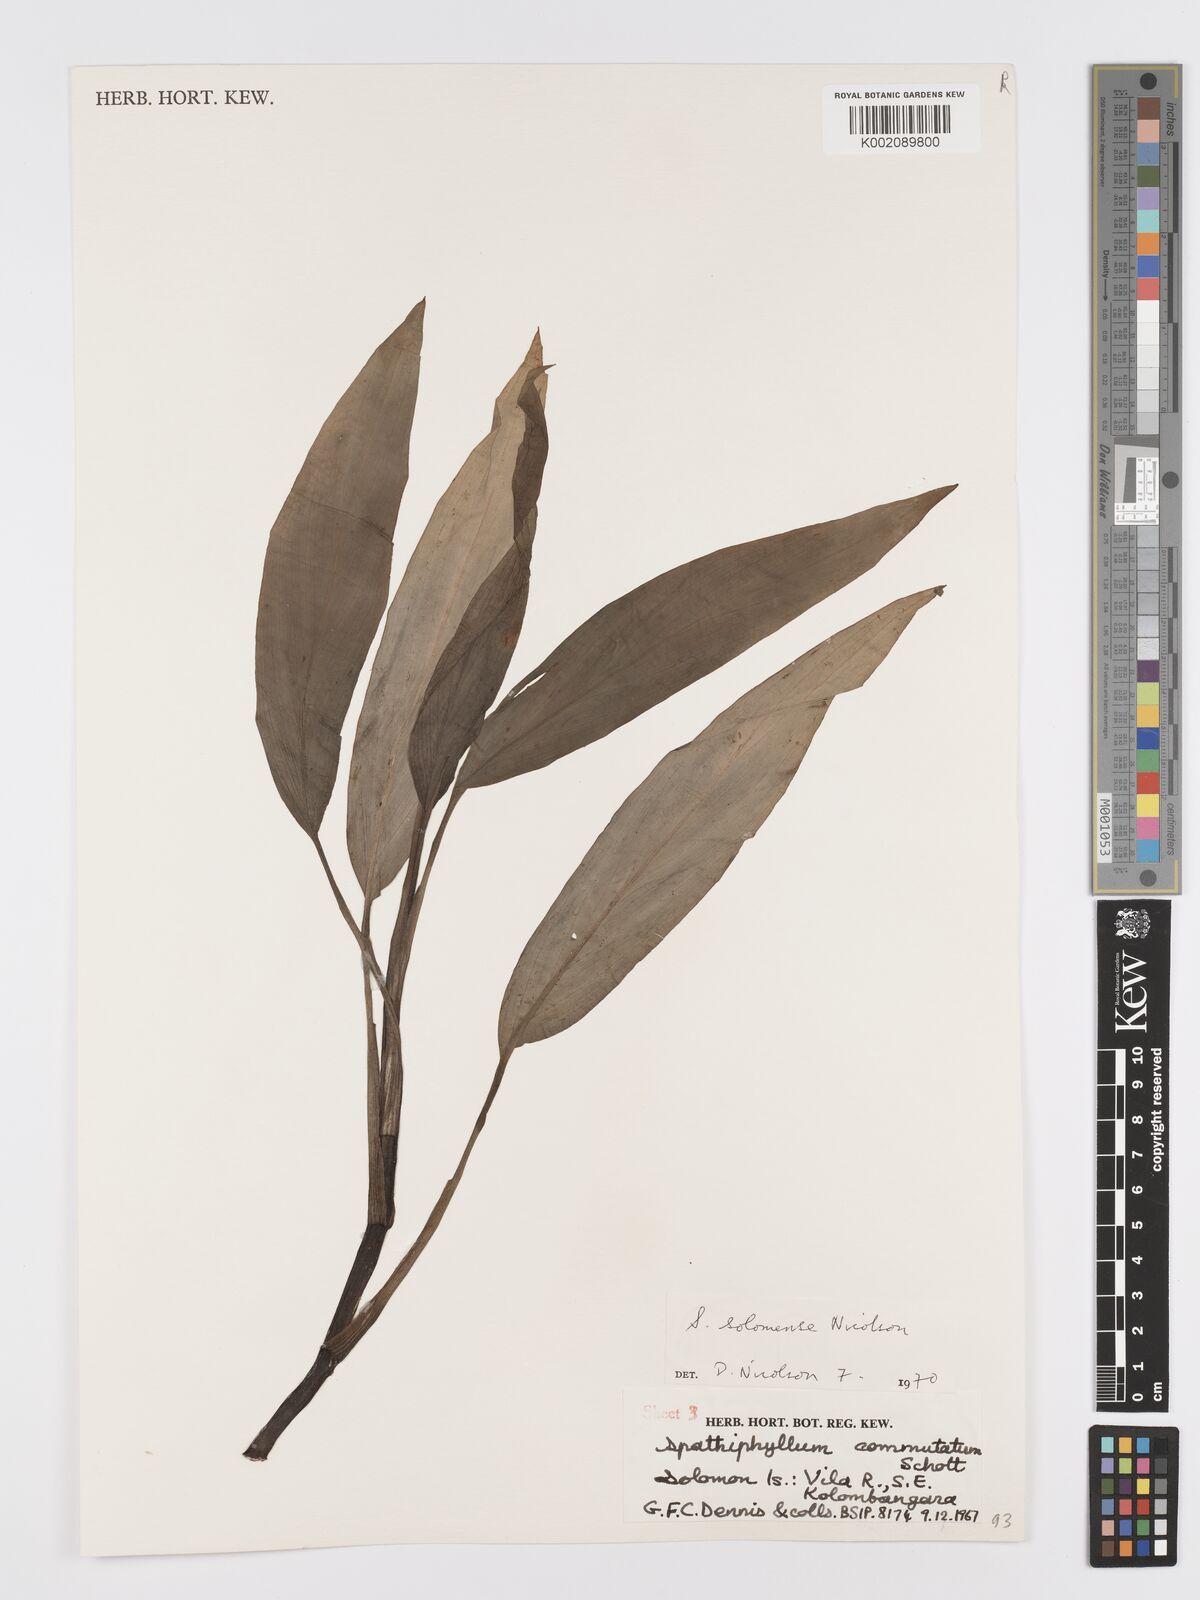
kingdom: Plantae
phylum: Tracheophyta
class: Liliopsida
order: Alismatales
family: Araceae
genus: Spathiphyllum
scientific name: Spathiphyllum solomonense
